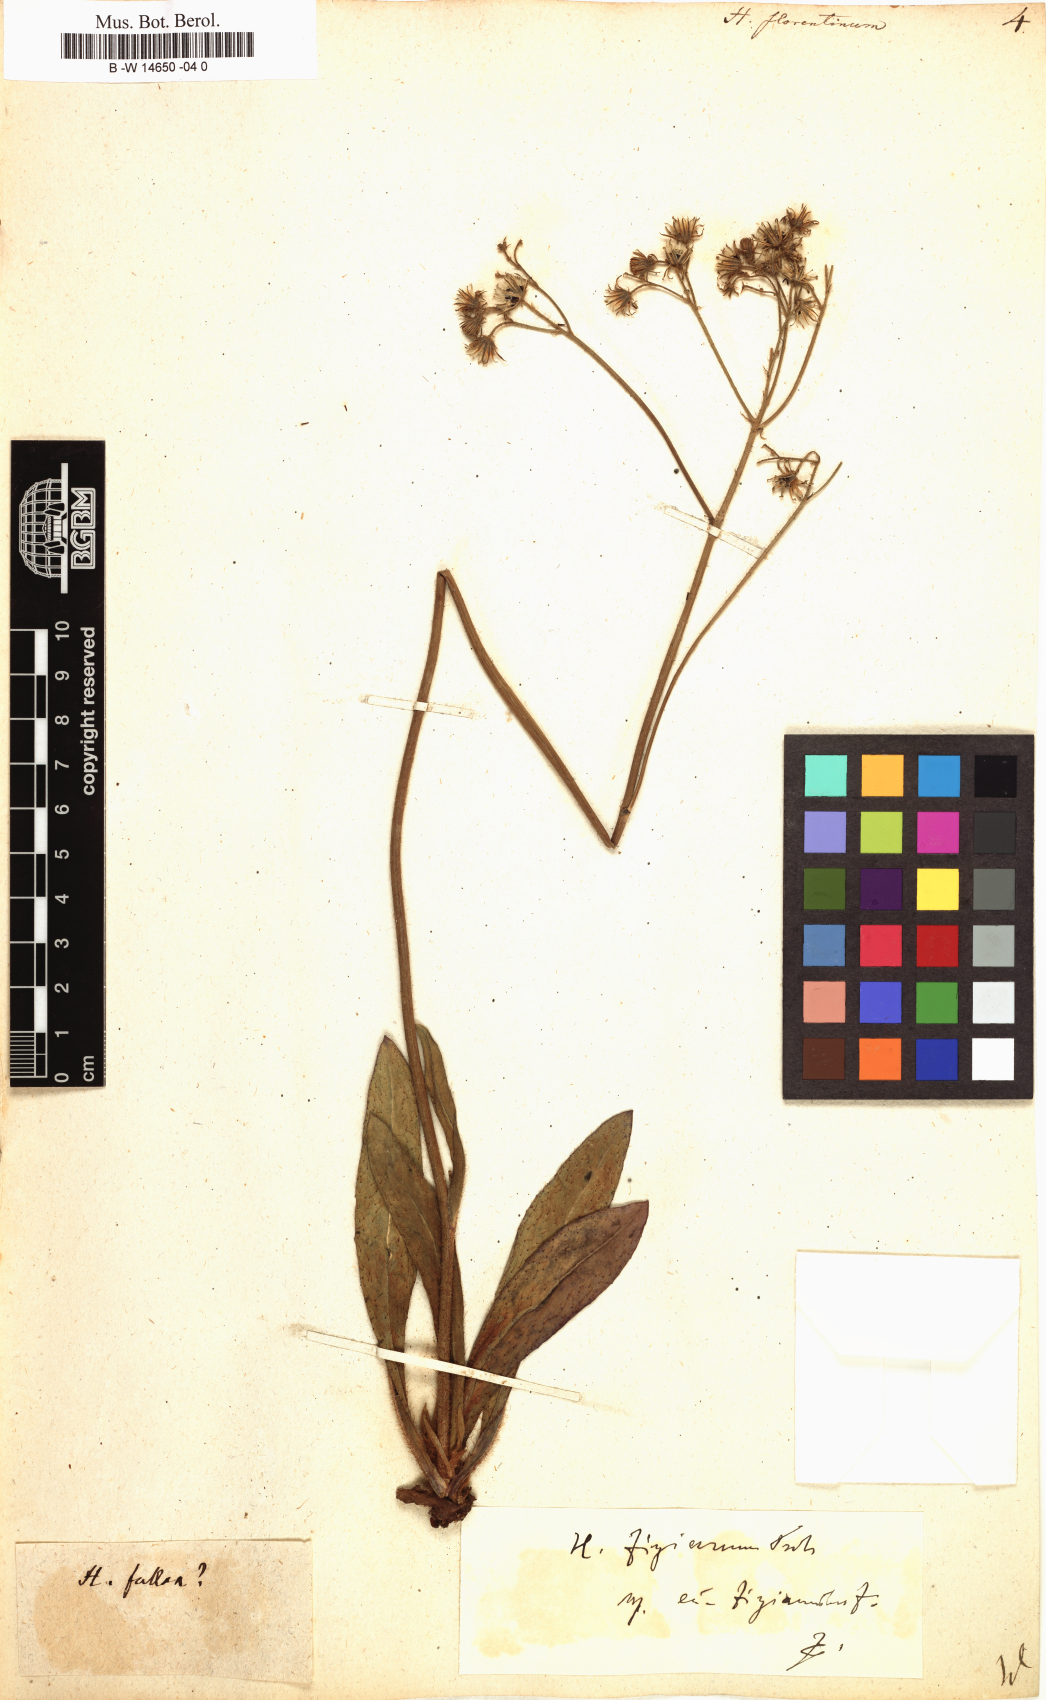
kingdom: Plantae
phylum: Tracheophyta
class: Magnoliopsida
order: Asterales
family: Asteraceae
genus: Hieracium
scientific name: Hieracium florentinum
